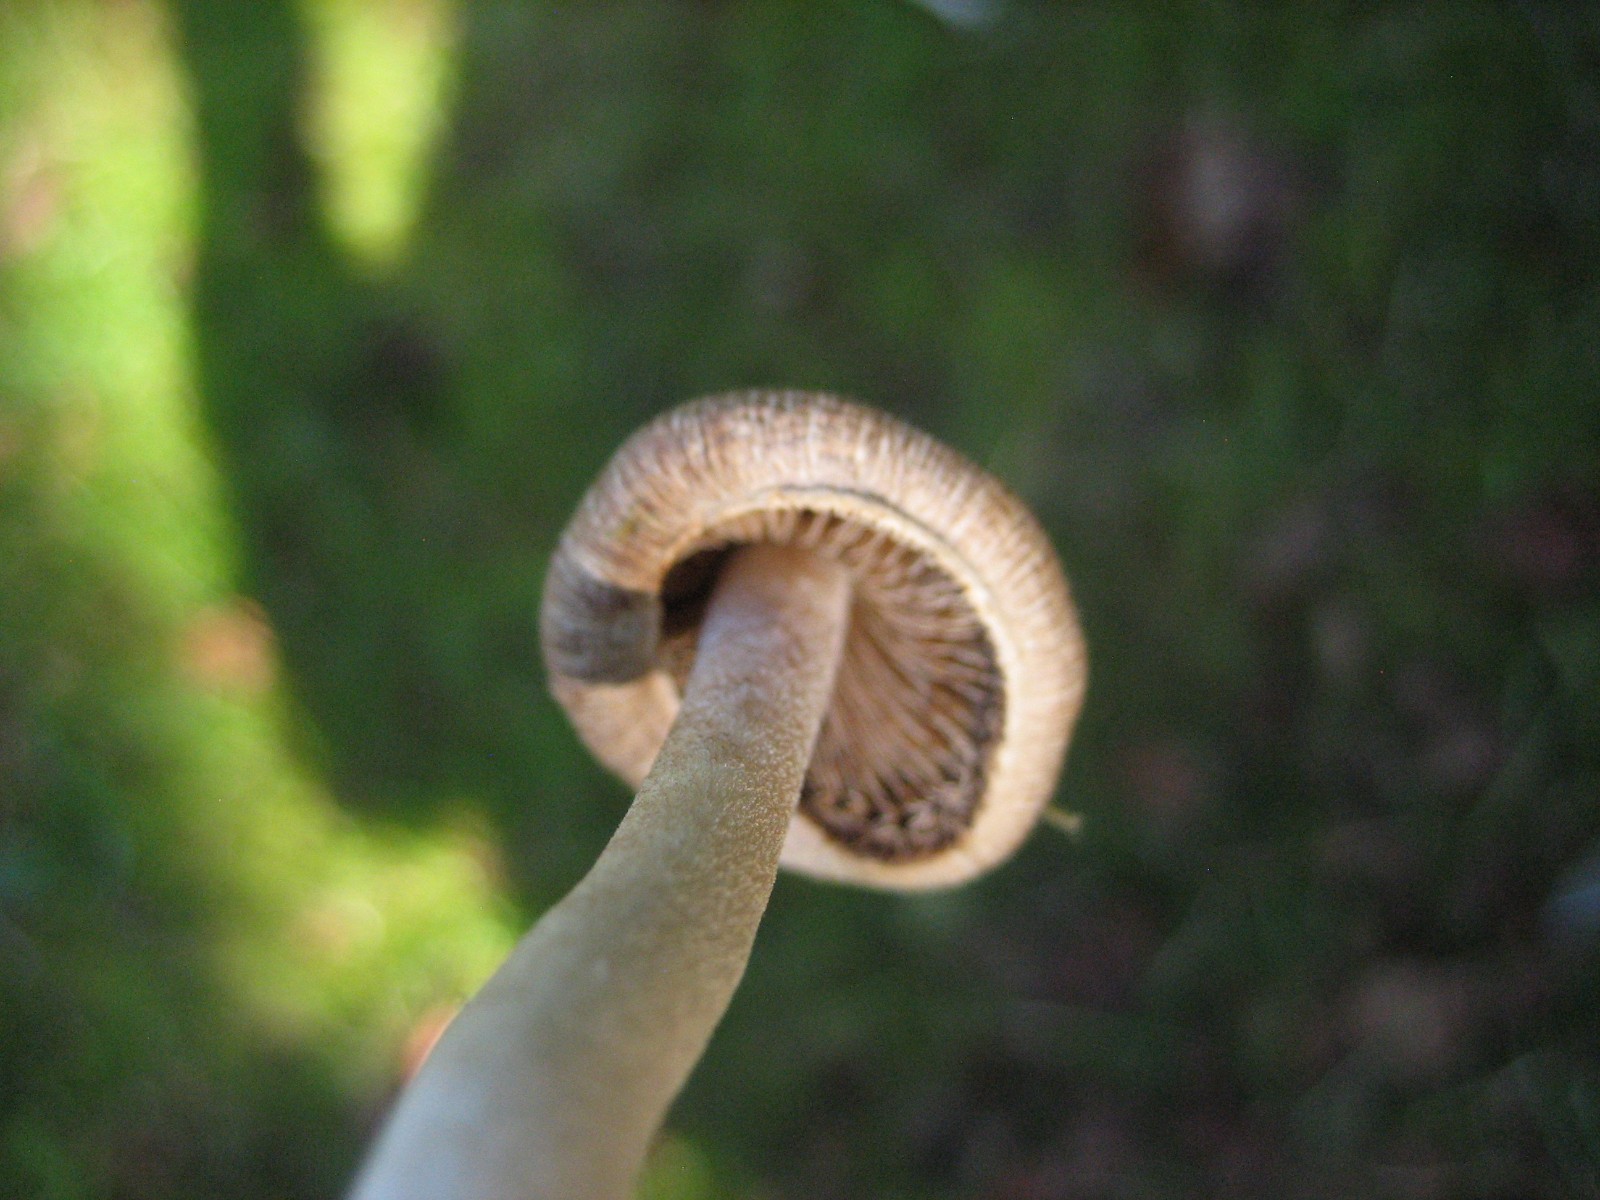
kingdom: Fungi
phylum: Basidiomycota
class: Agaricomycetes
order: Agaricales
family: Inocybaceae
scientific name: Inocybaceae
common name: trævlhatfamilien
